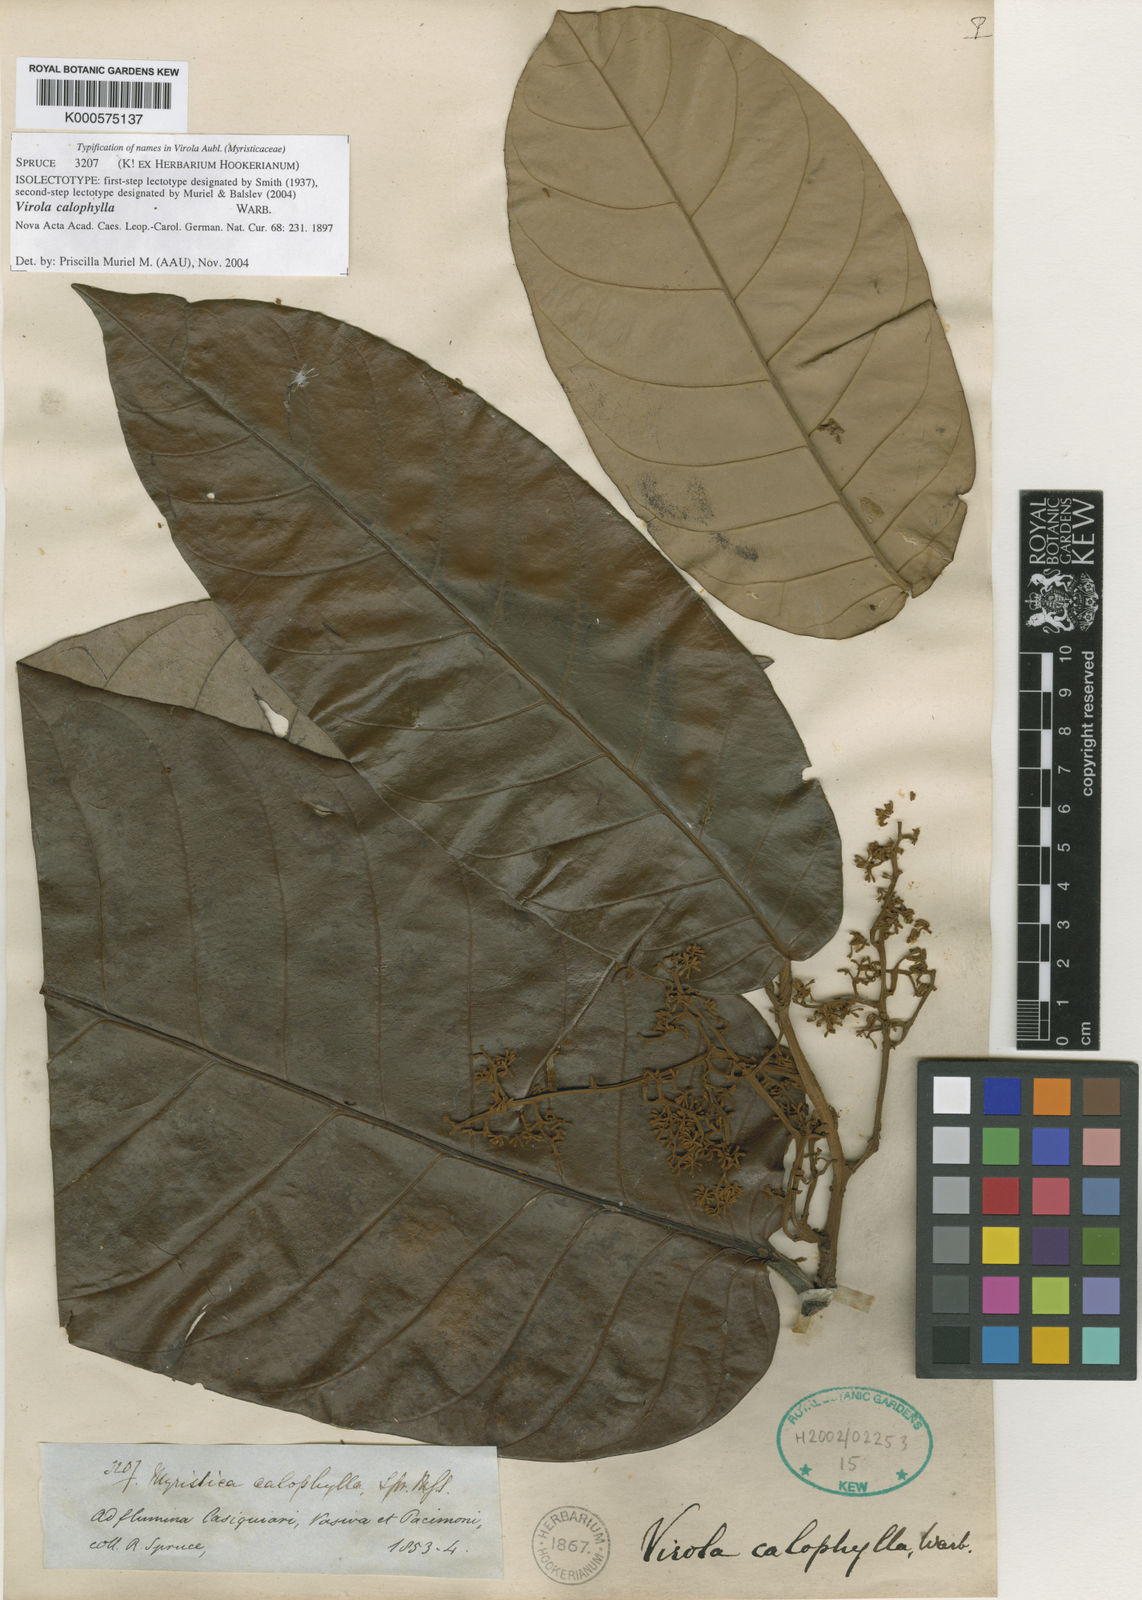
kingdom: Plantae
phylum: Tracheophyta
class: Magnoliopsida
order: Magnoliales
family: Myristicaceae
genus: Virola
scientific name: Virola calophylla
